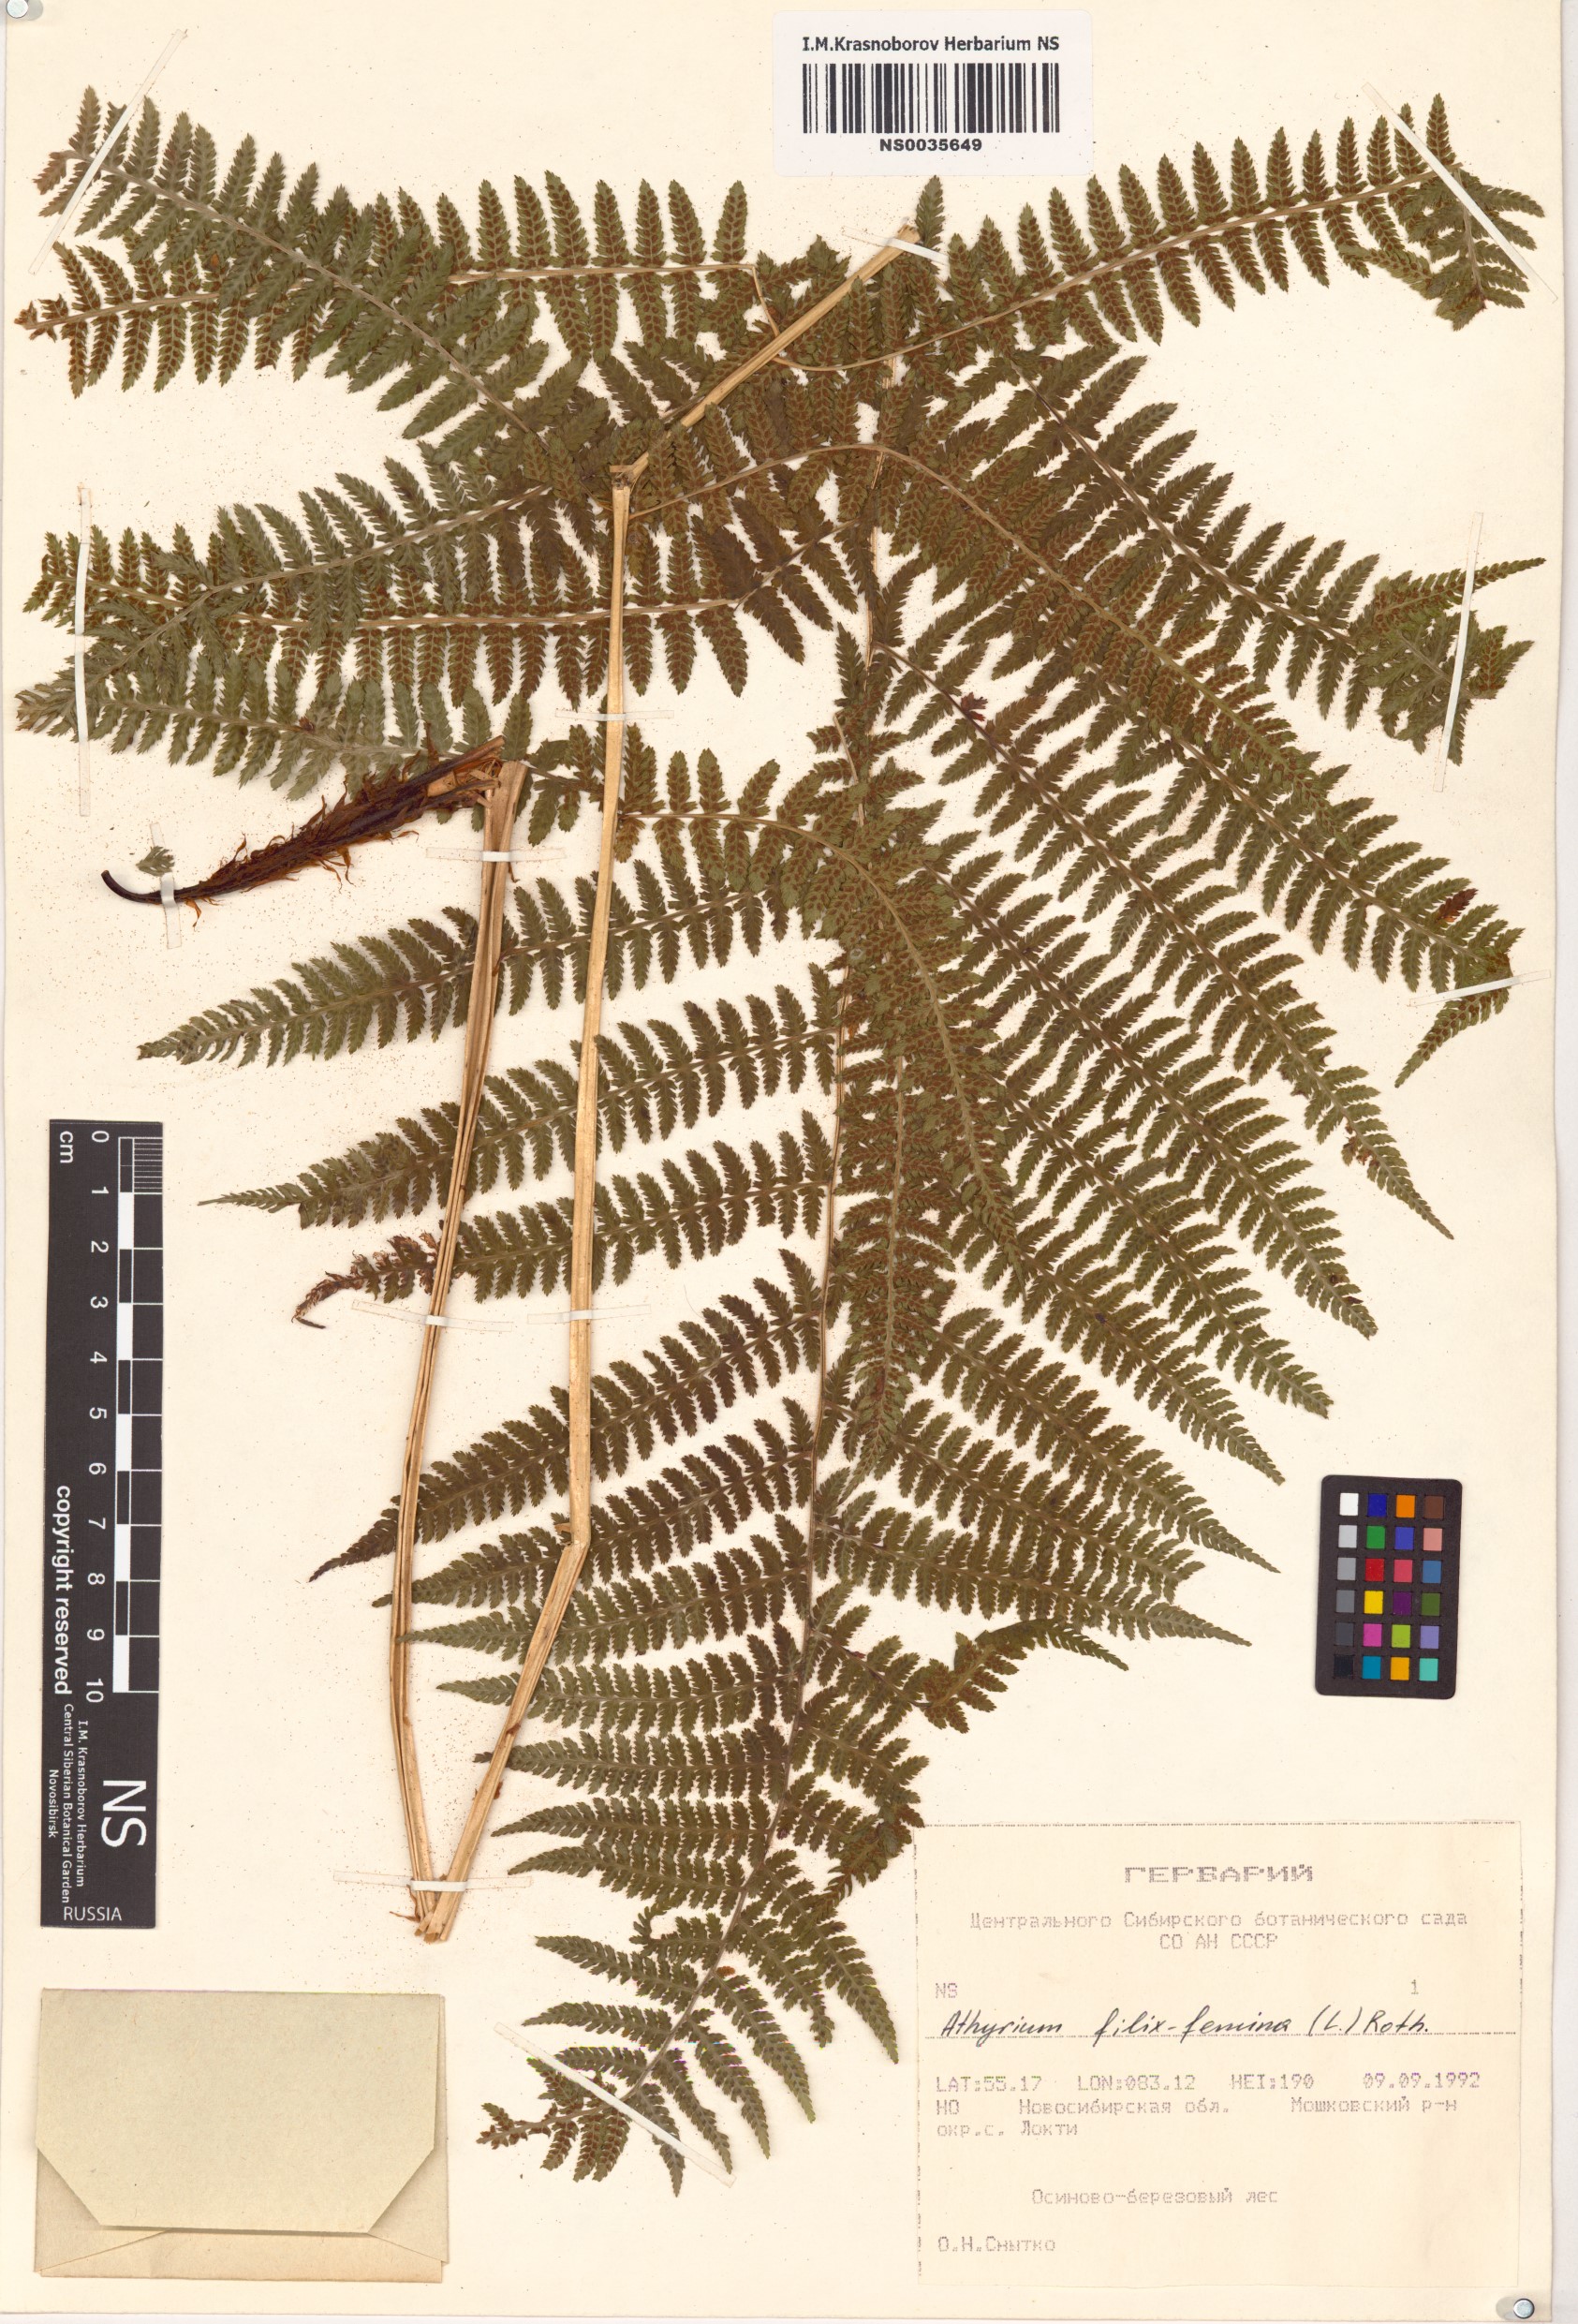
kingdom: Plantae
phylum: Tracheophyta
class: Polypodiopsida
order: Polypodiales
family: Athyriaceae
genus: Athyrium
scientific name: Athyrium filix-femina
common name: Lady fern
